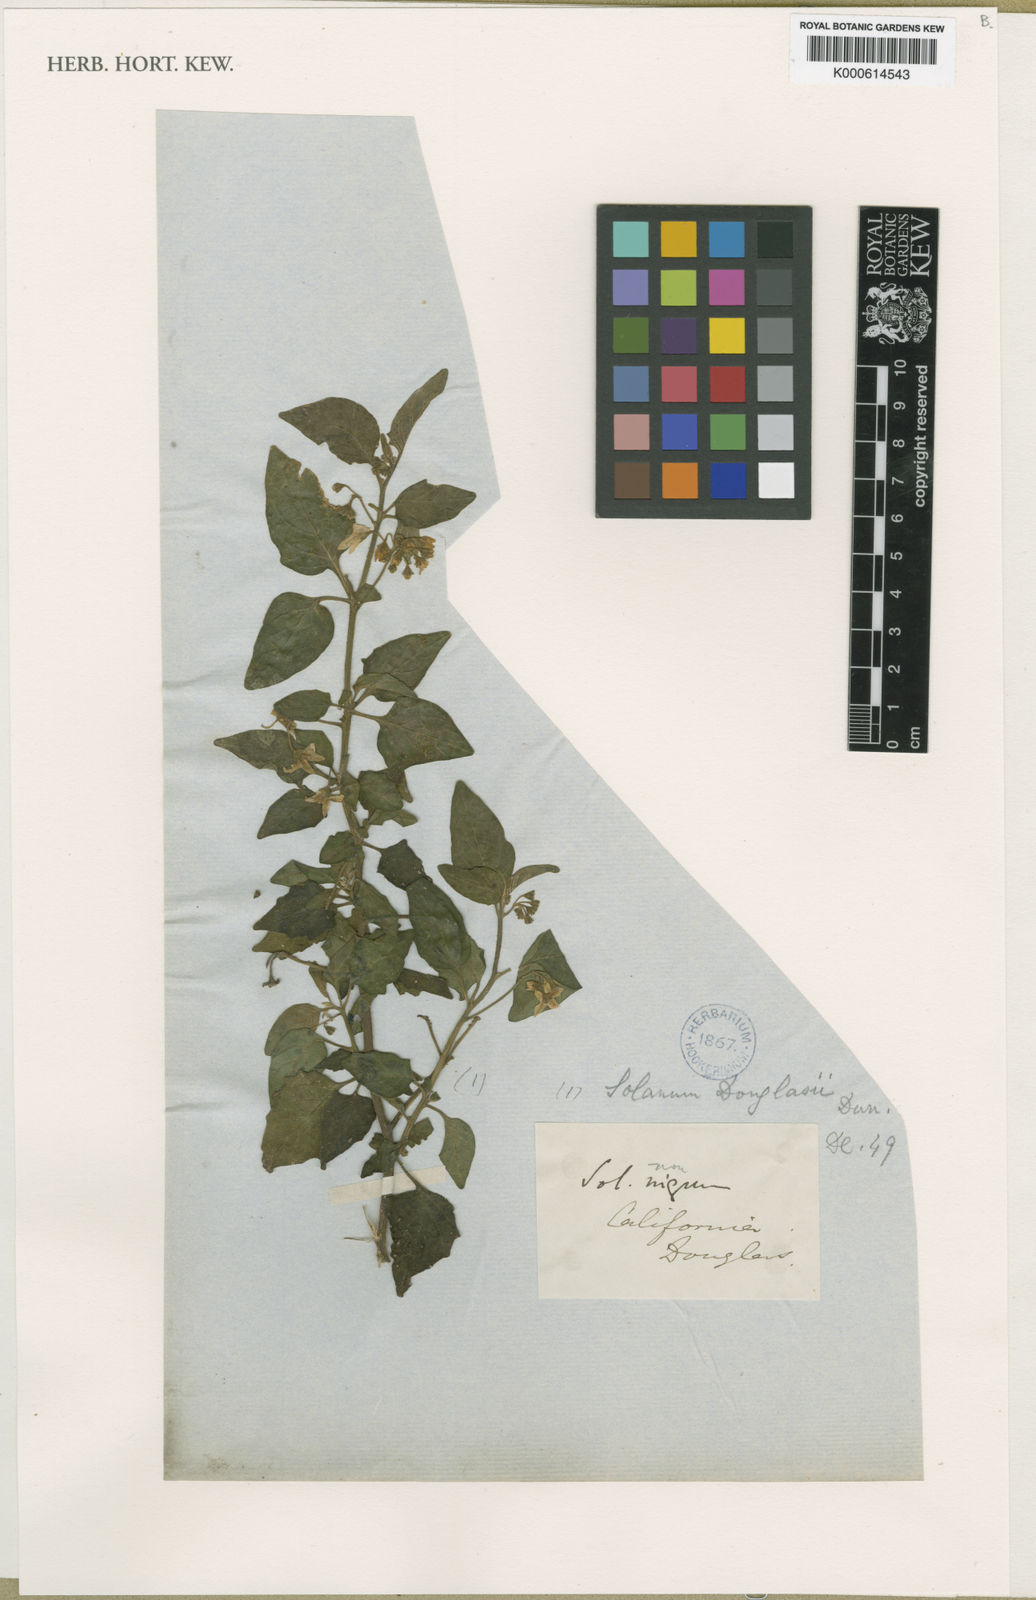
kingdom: Plantae
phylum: Tracheophyta
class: Magnoliopsida
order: Solanales
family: Solanaceae
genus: Solanum
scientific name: Solanum douglasii
